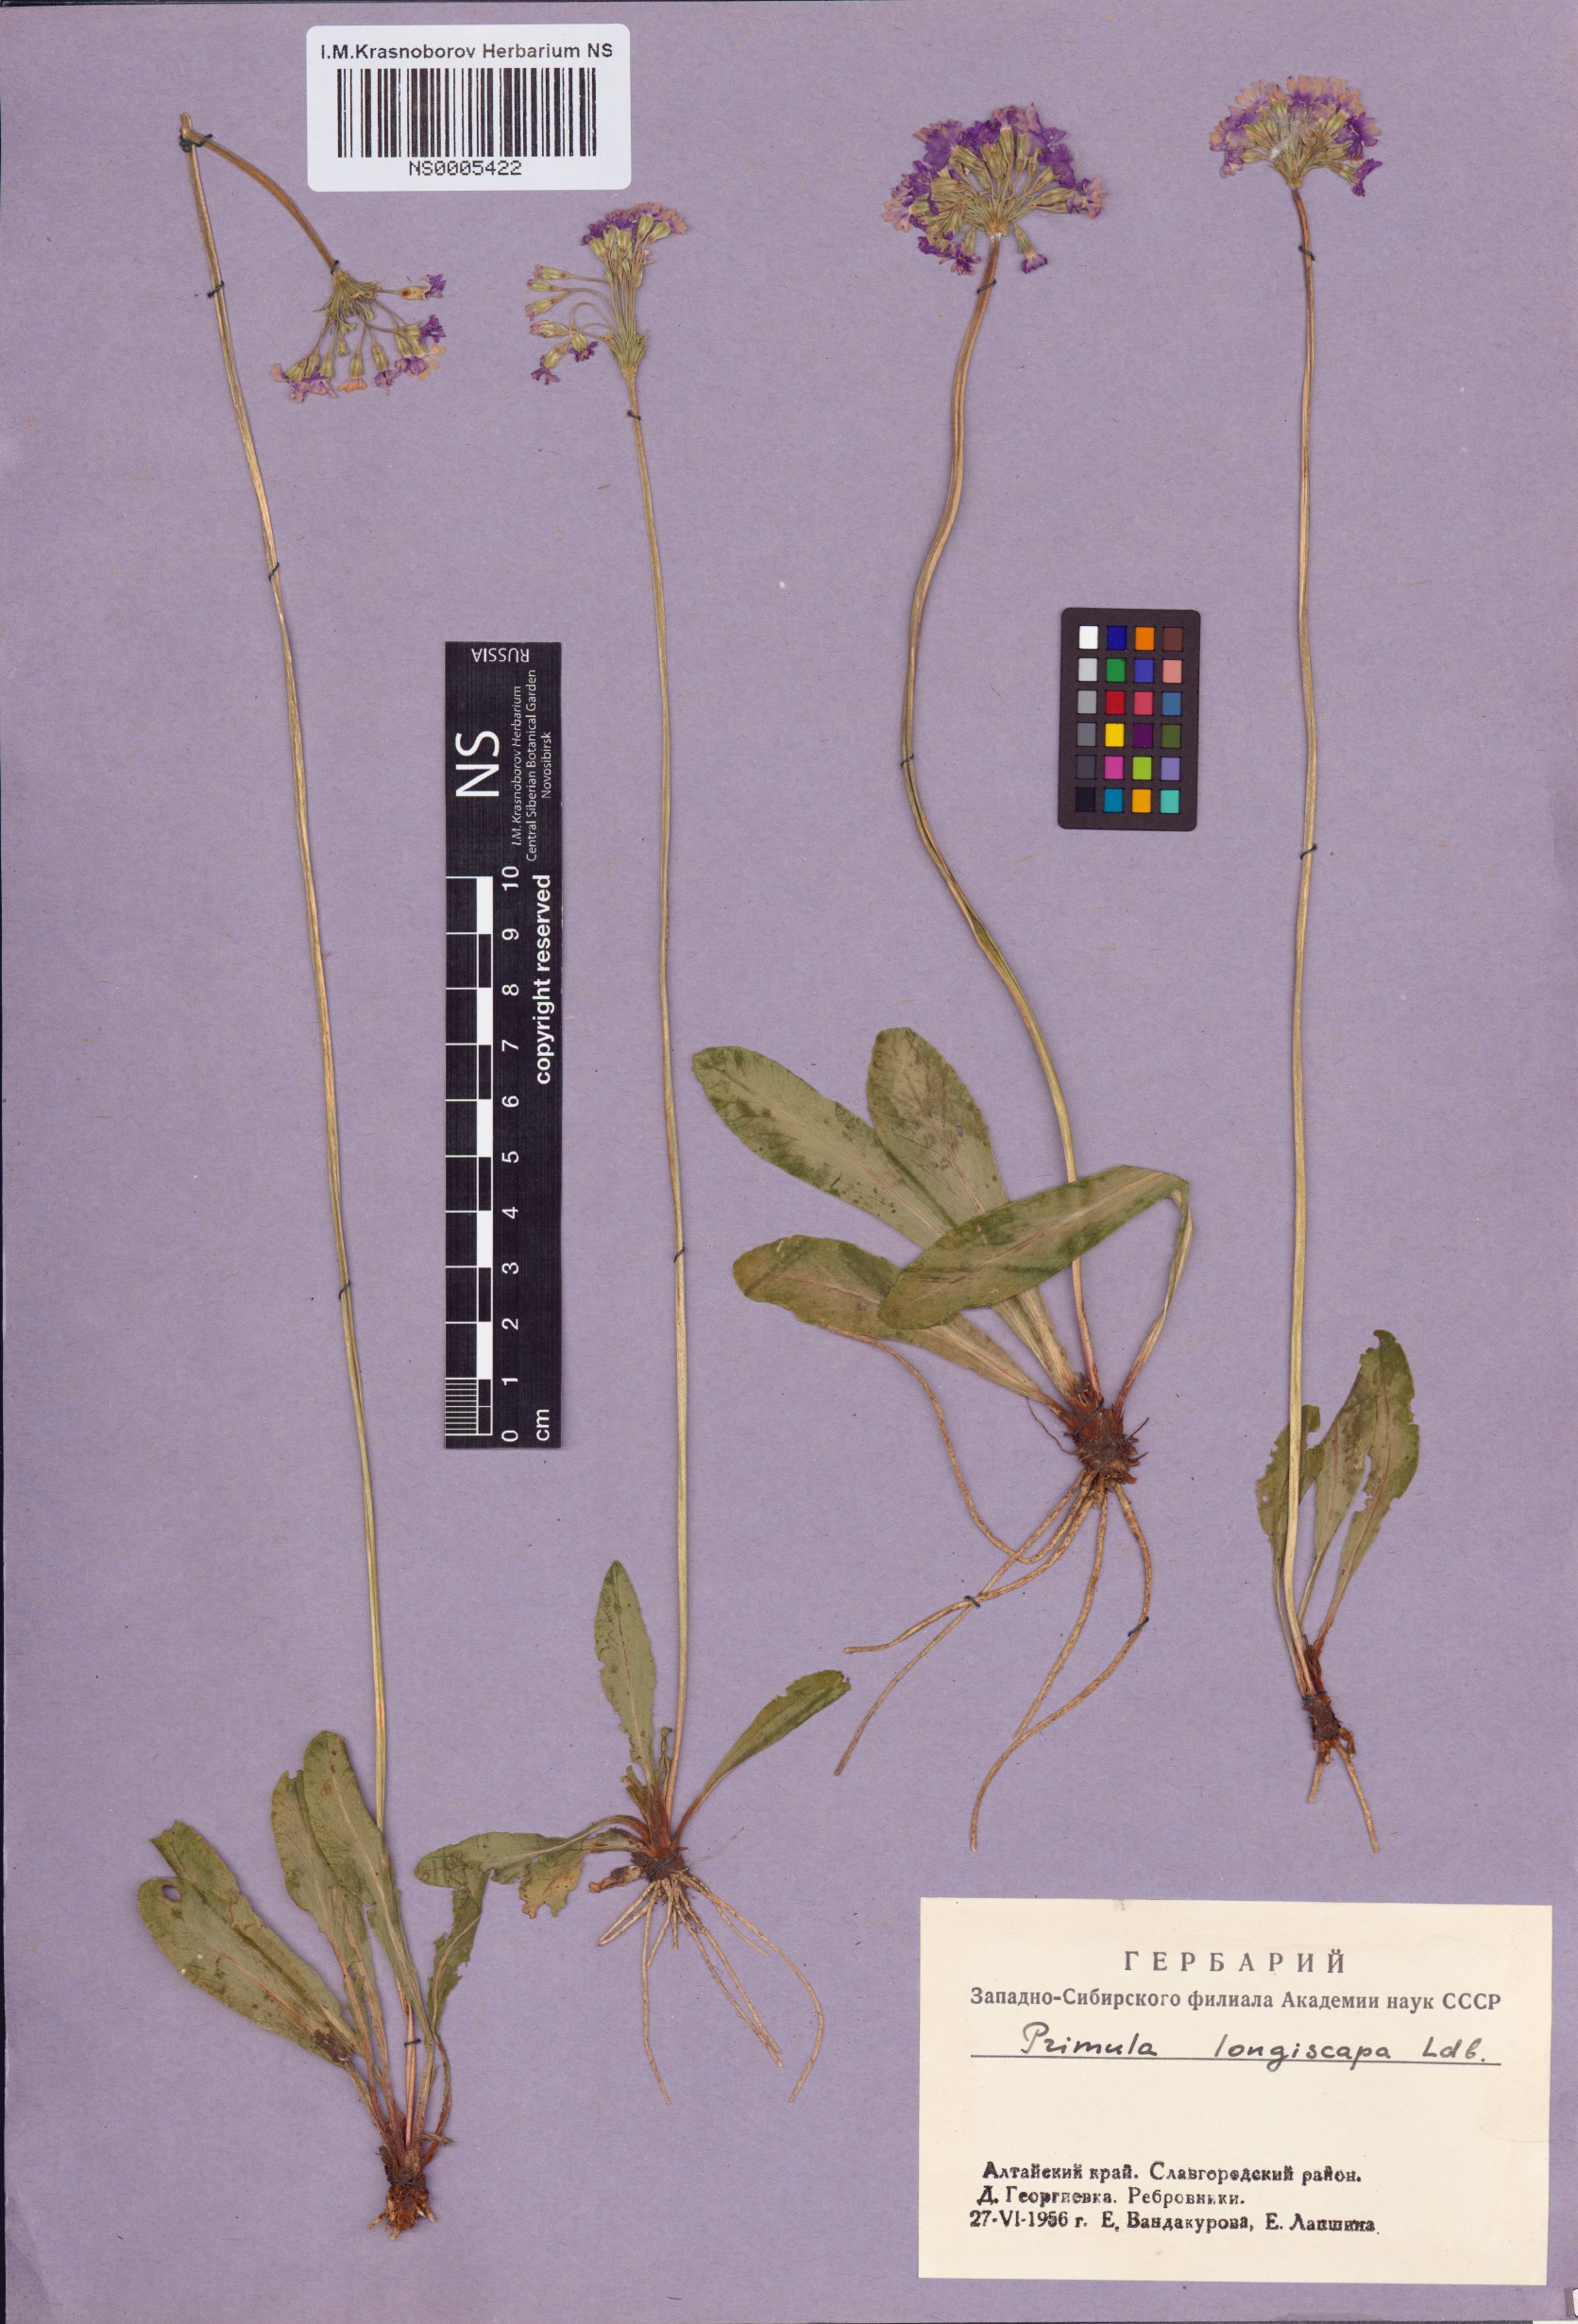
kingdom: Plantae
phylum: Tracheophyta
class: Magnoliopsida
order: Ericales
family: Primulaceae
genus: Primula
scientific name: Primula longiscapa
